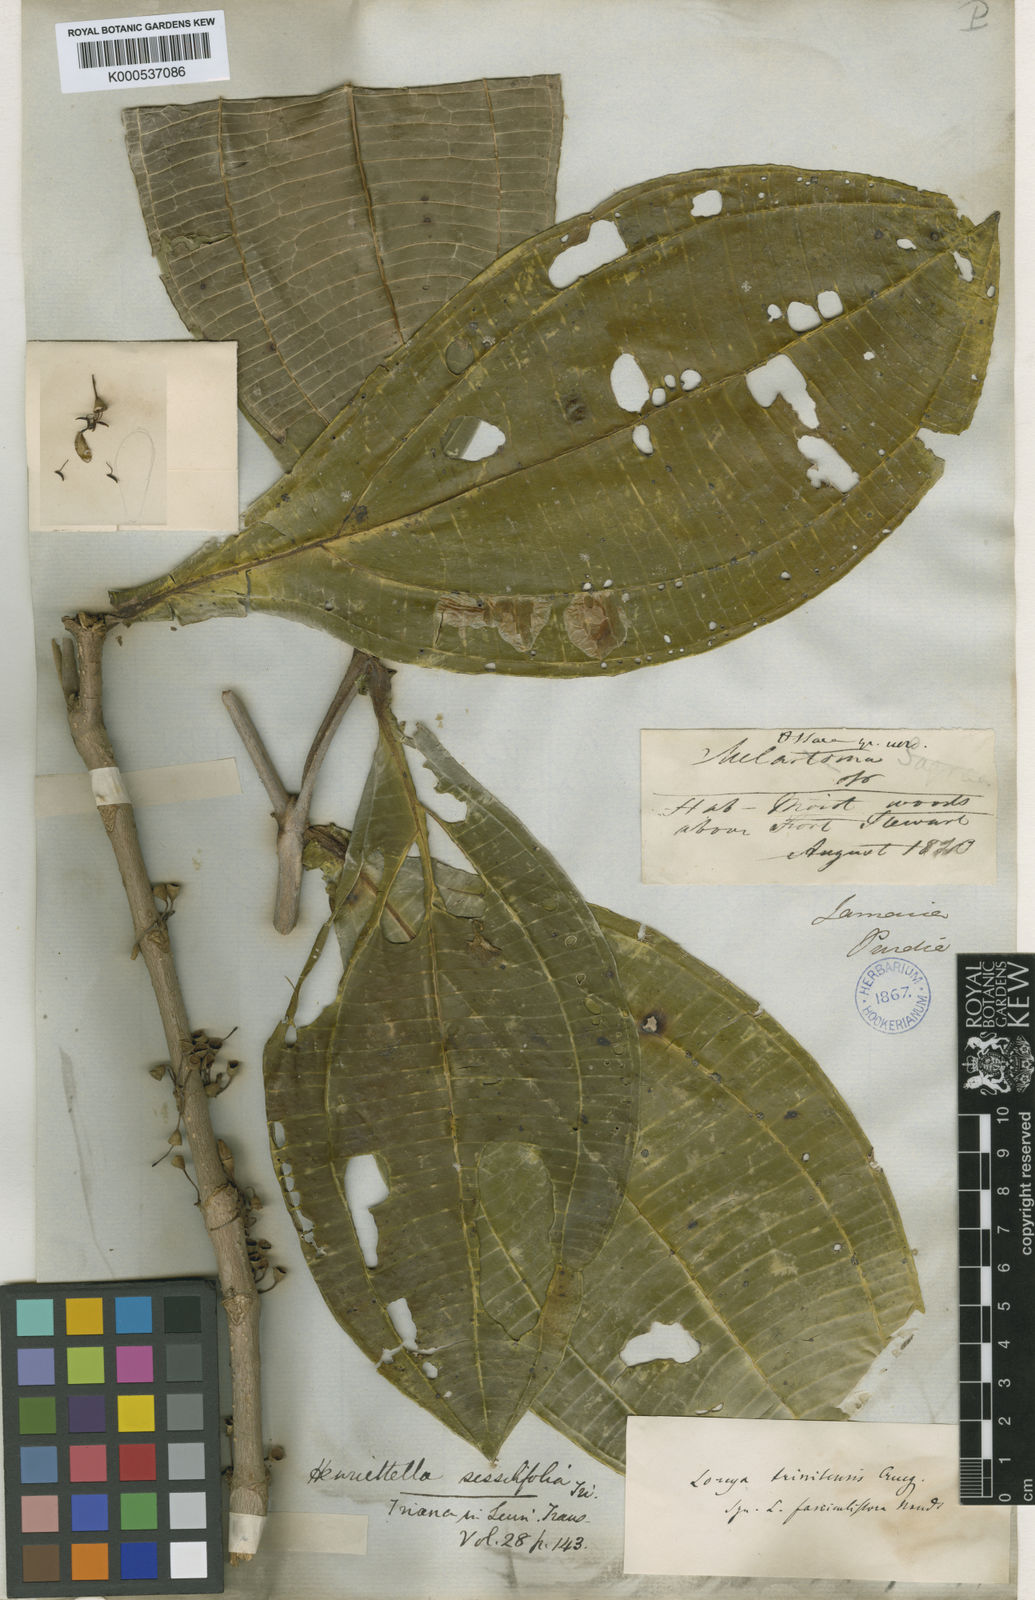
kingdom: Plantae
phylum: Tracheophyta
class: Magnoliopsida
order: Myrtales
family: Melastomataceae
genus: Henriettea
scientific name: Henriettea sessilifolia
